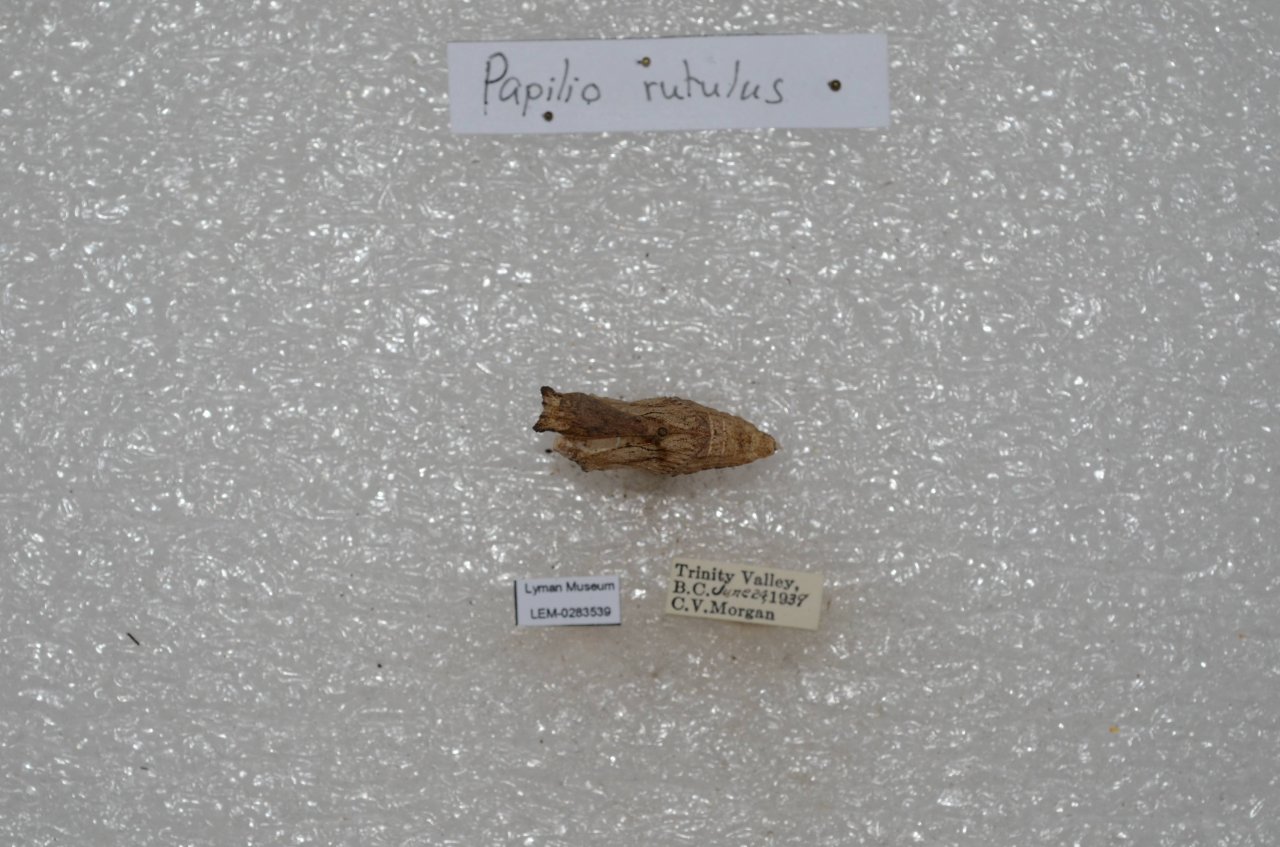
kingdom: Animalia
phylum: Arthropoda
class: Insecta
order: Lepidoptera
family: Papilionidae
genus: Pterourus
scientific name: Pterourus rutulus
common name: Western Tiger Swallowtail
